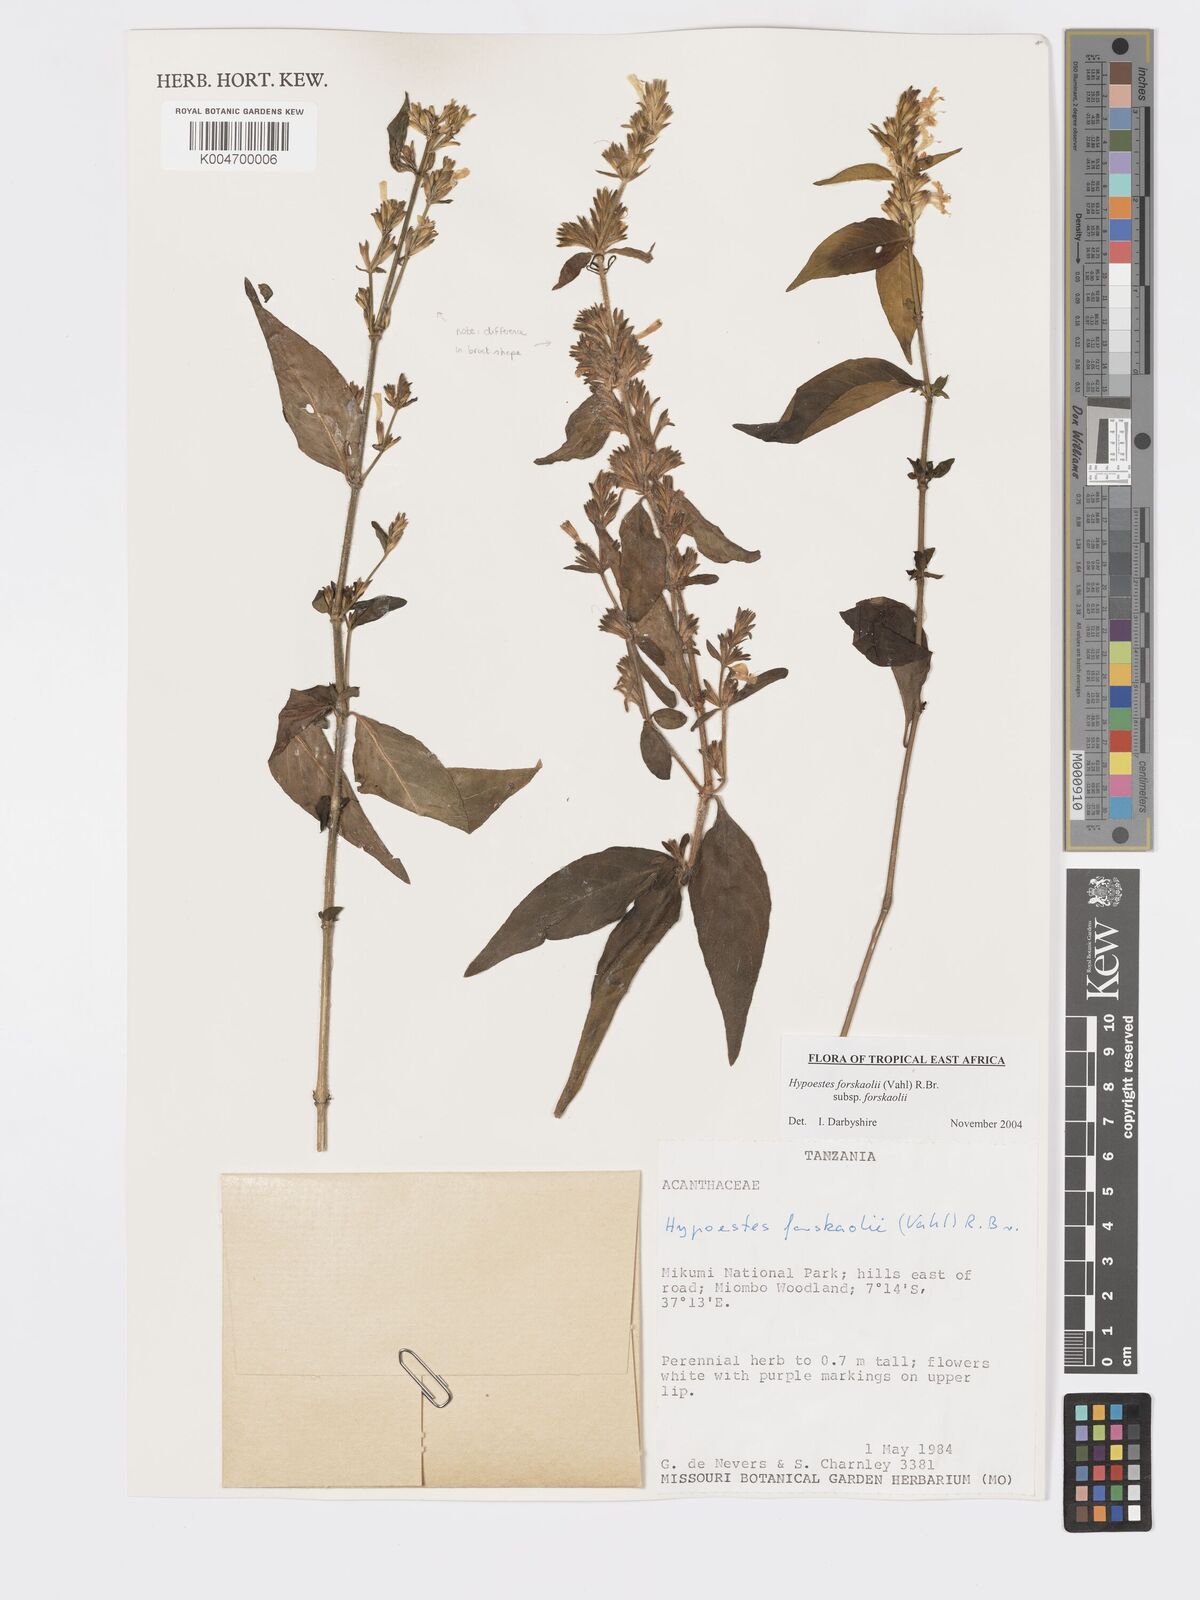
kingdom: Plantae
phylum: Tracheophyta
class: Magnoliopsida
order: Lamiales
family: Acanthaceae
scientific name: Acanthaceae
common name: Acanthaceae
